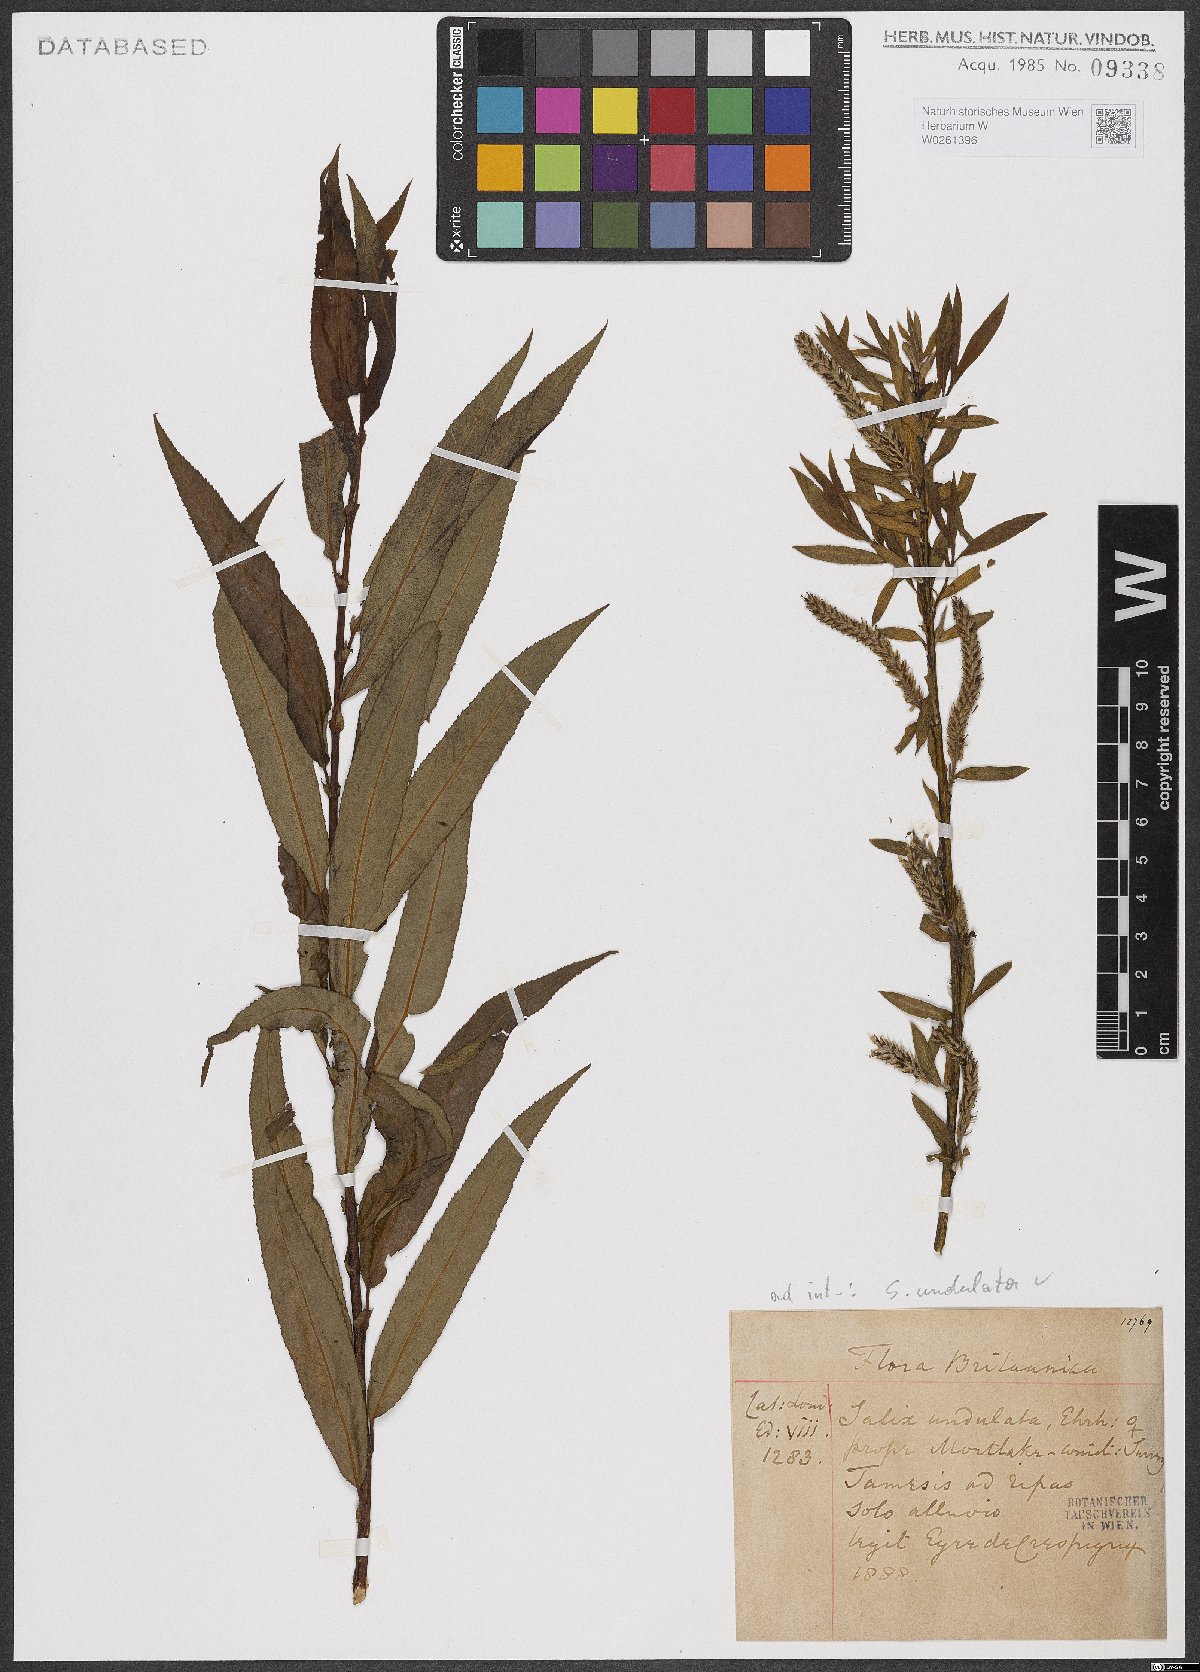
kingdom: Plantae
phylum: Tracheophyta
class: Magnoliopsida
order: Malpighiales
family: Salicaceae
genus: Salix
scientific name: Salix undulata
